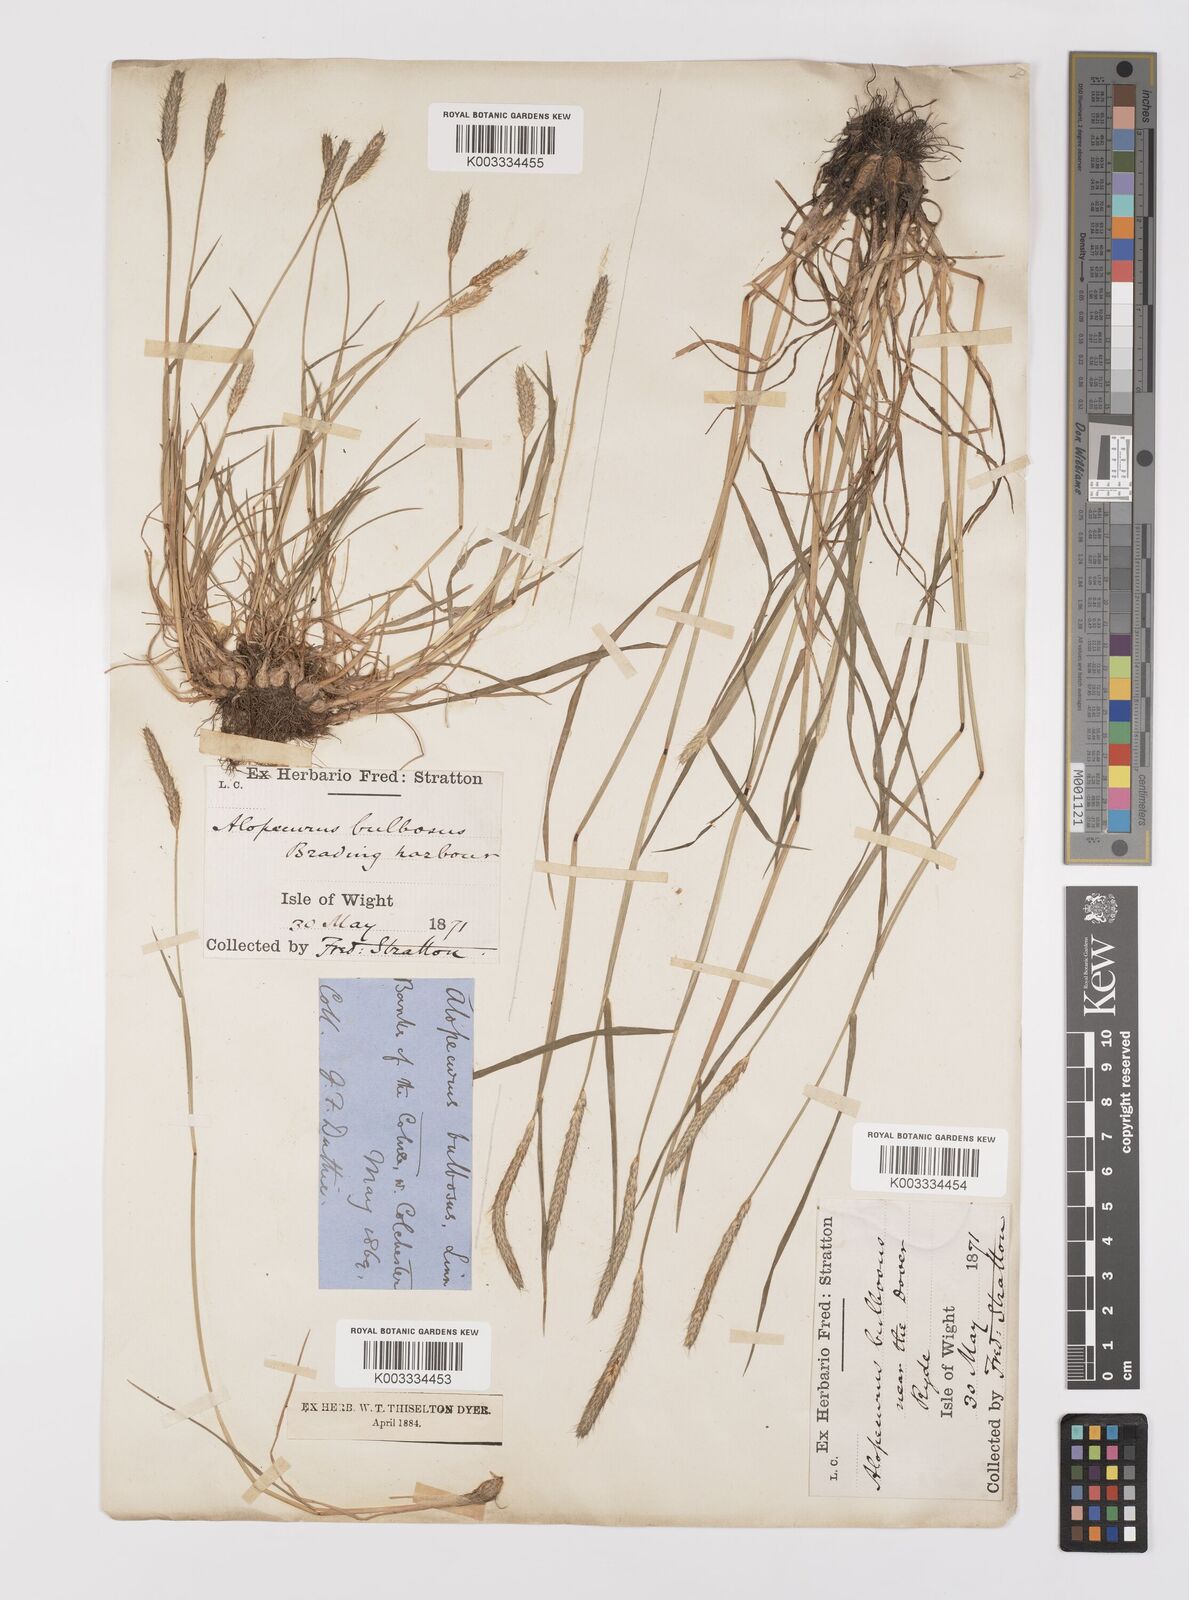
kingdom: Plantae
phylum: Tracheophyta
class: Liliopsida
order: Poales
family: Poaceae
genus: Alopecurus
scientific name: Alopecurus bulbosus
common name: Bulbous foxtail
